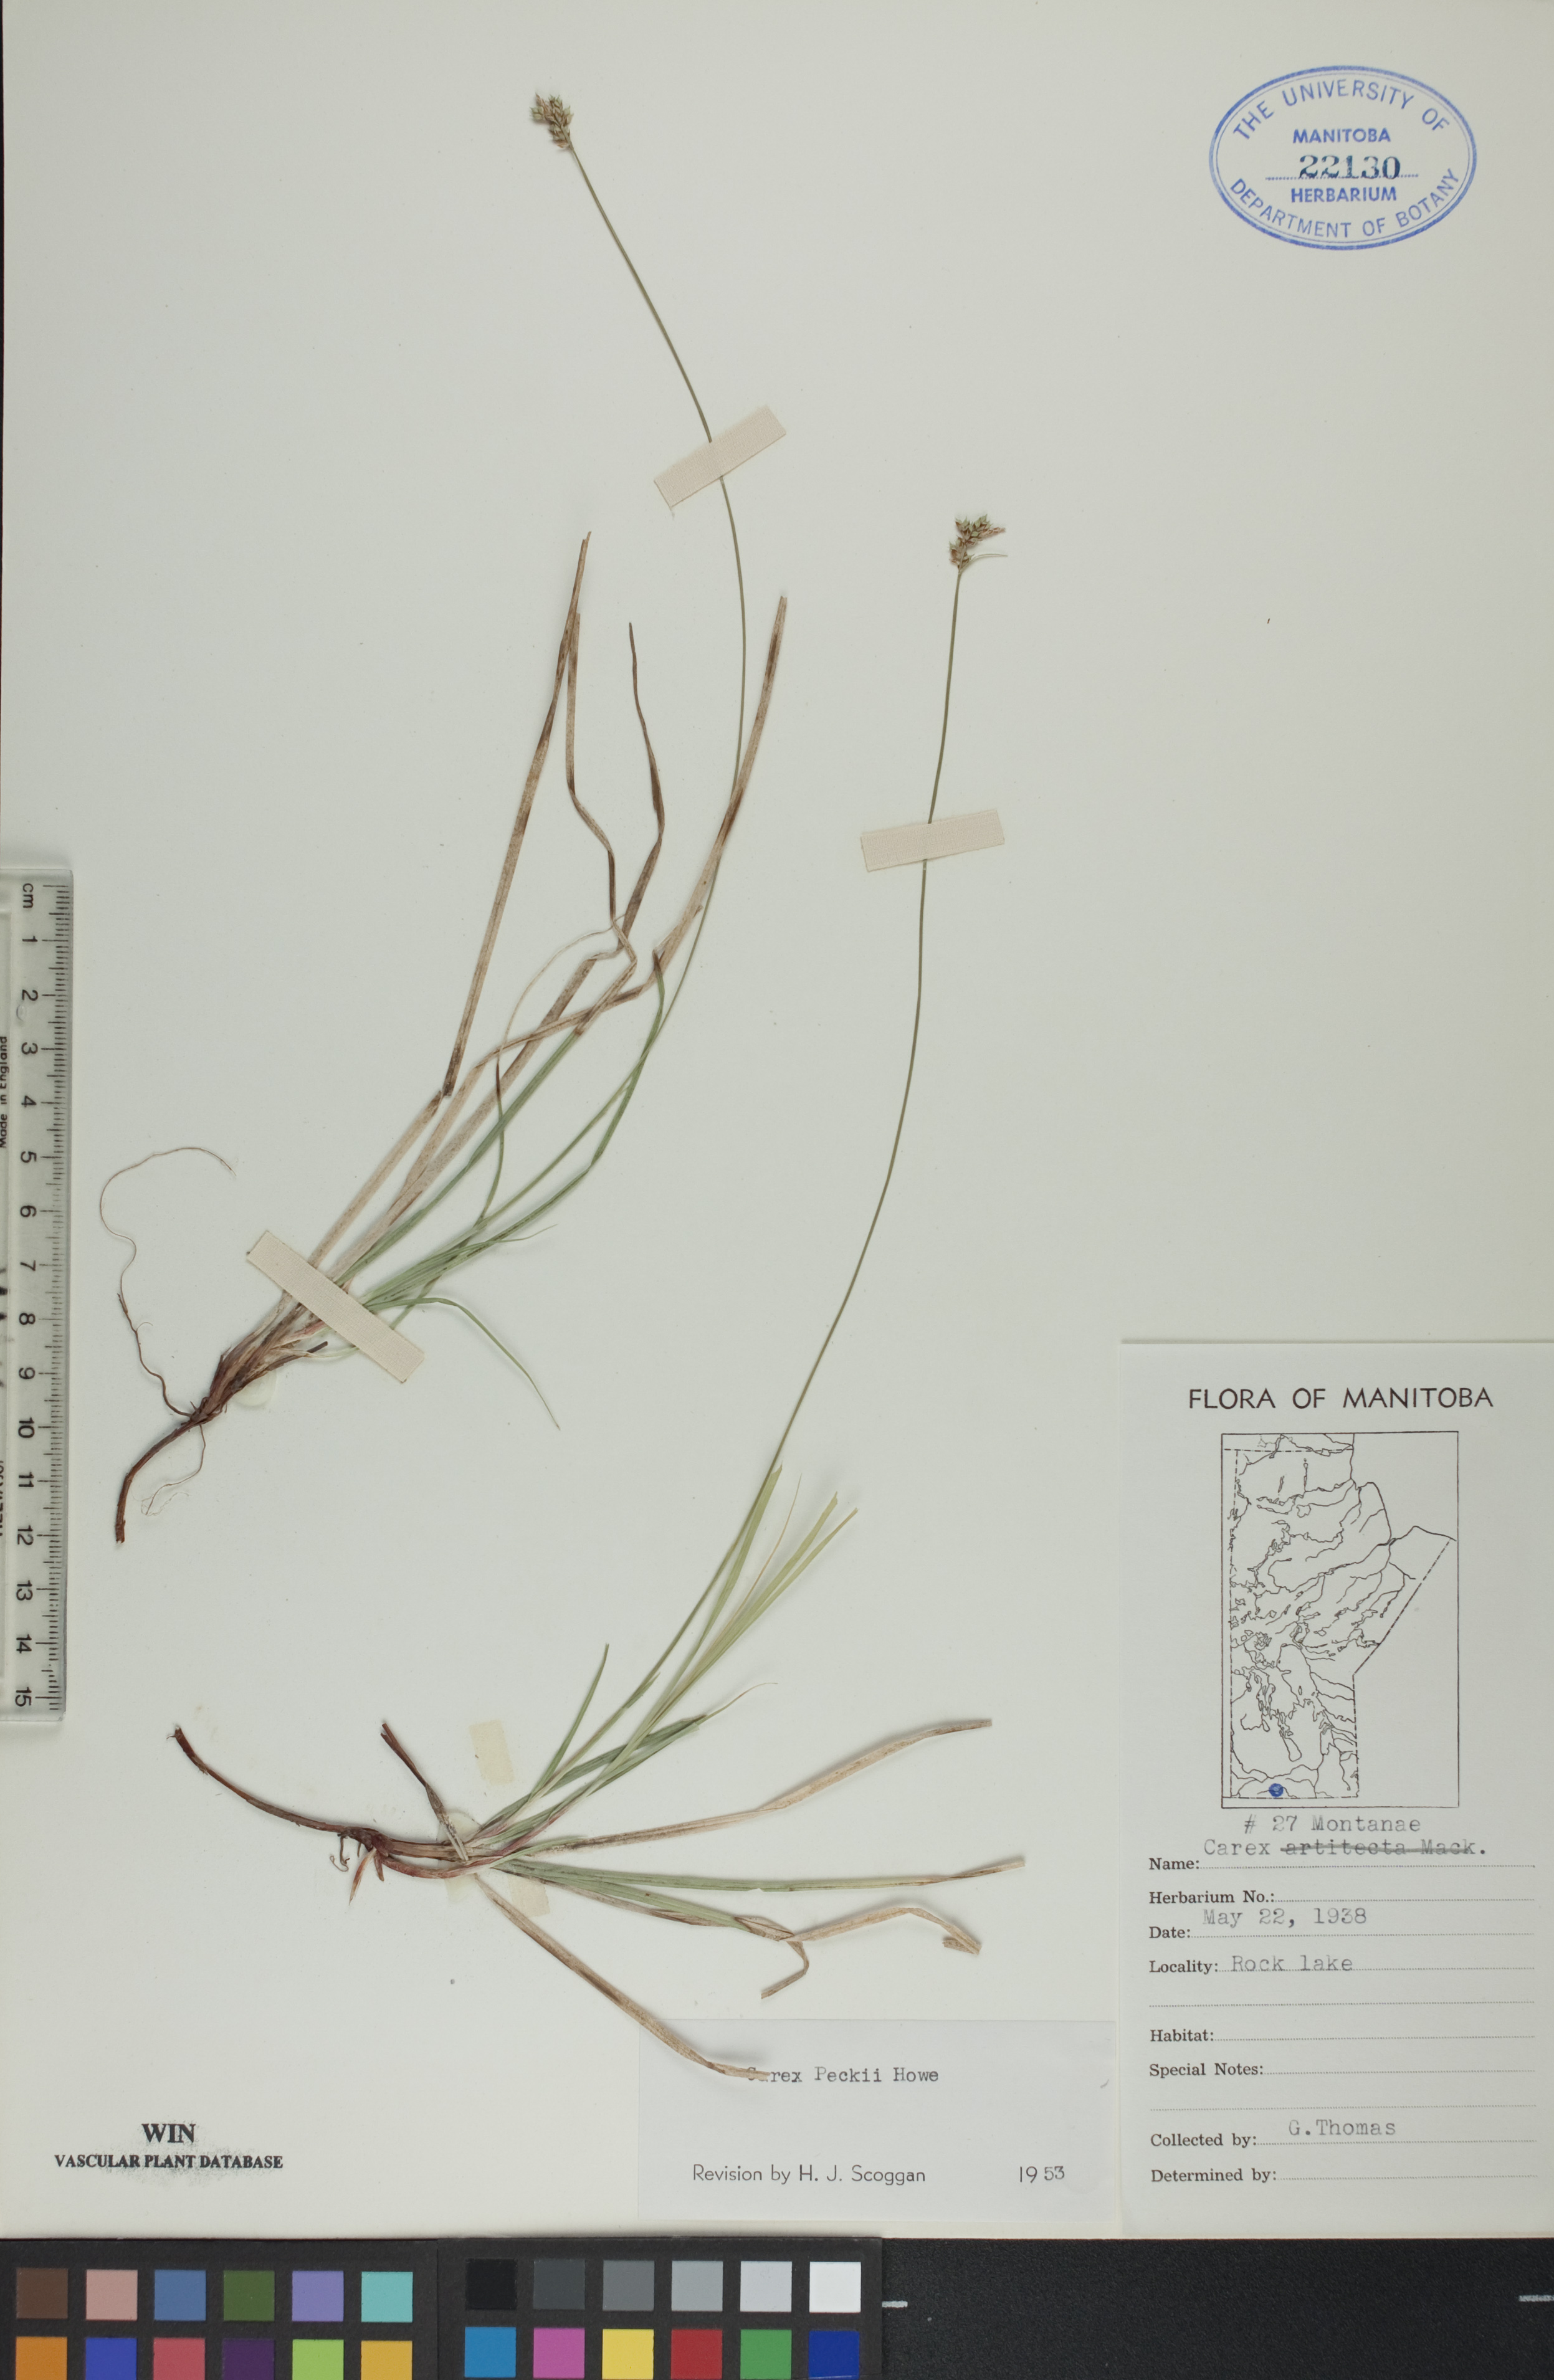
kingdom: Plantae
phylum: Tracheophyta
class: Liliopsida
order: Poales
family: Cyperaceae
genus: Carex
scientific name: Carex peckii
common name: Peck's oak sedge
